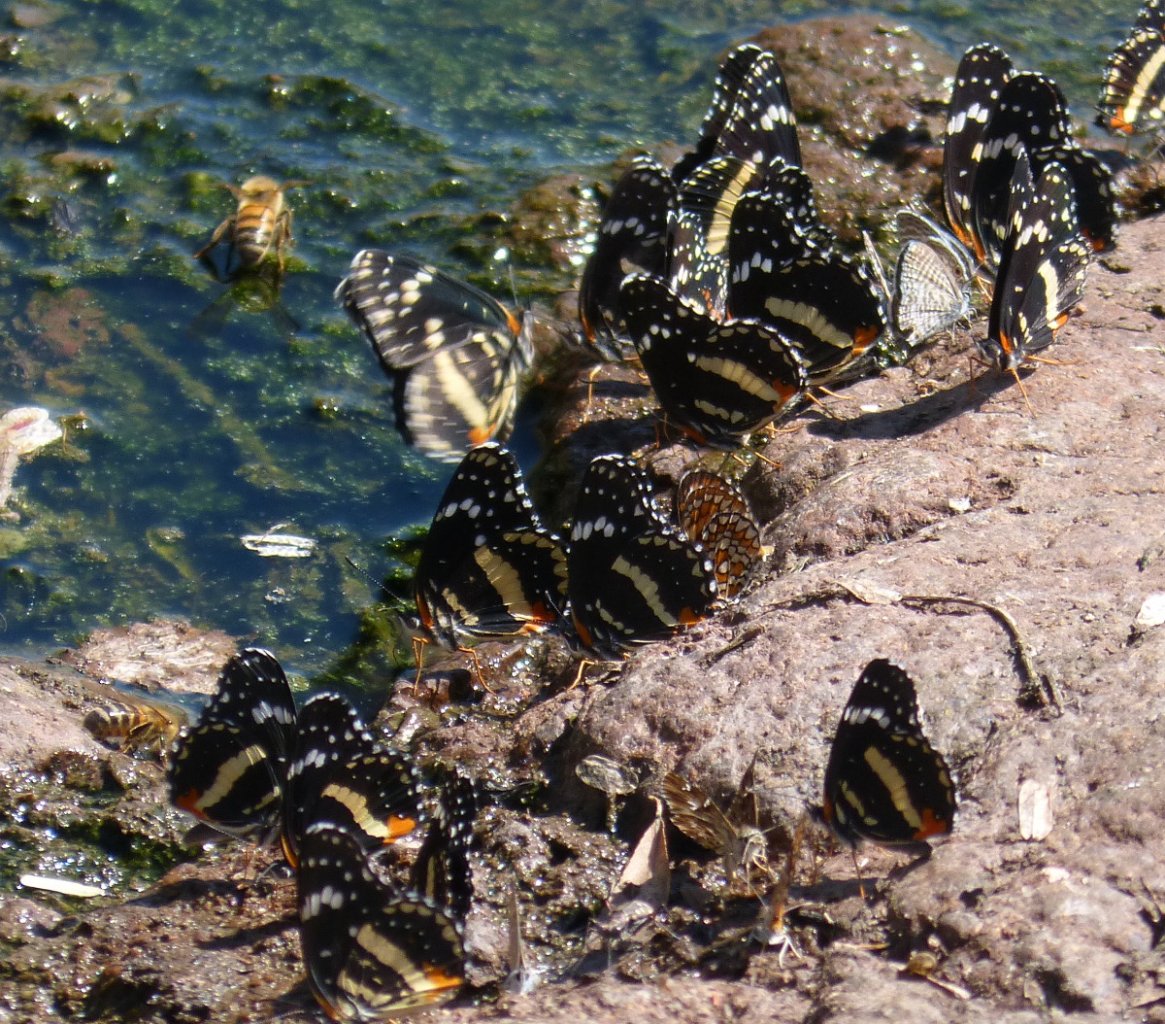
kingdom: Animalia
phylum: Arthropoda
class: Insecta
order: Lepidoptera
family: Nymphalidae
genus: Chlosyne
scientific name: Chlosyne lacinia
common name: Bordered Patch
